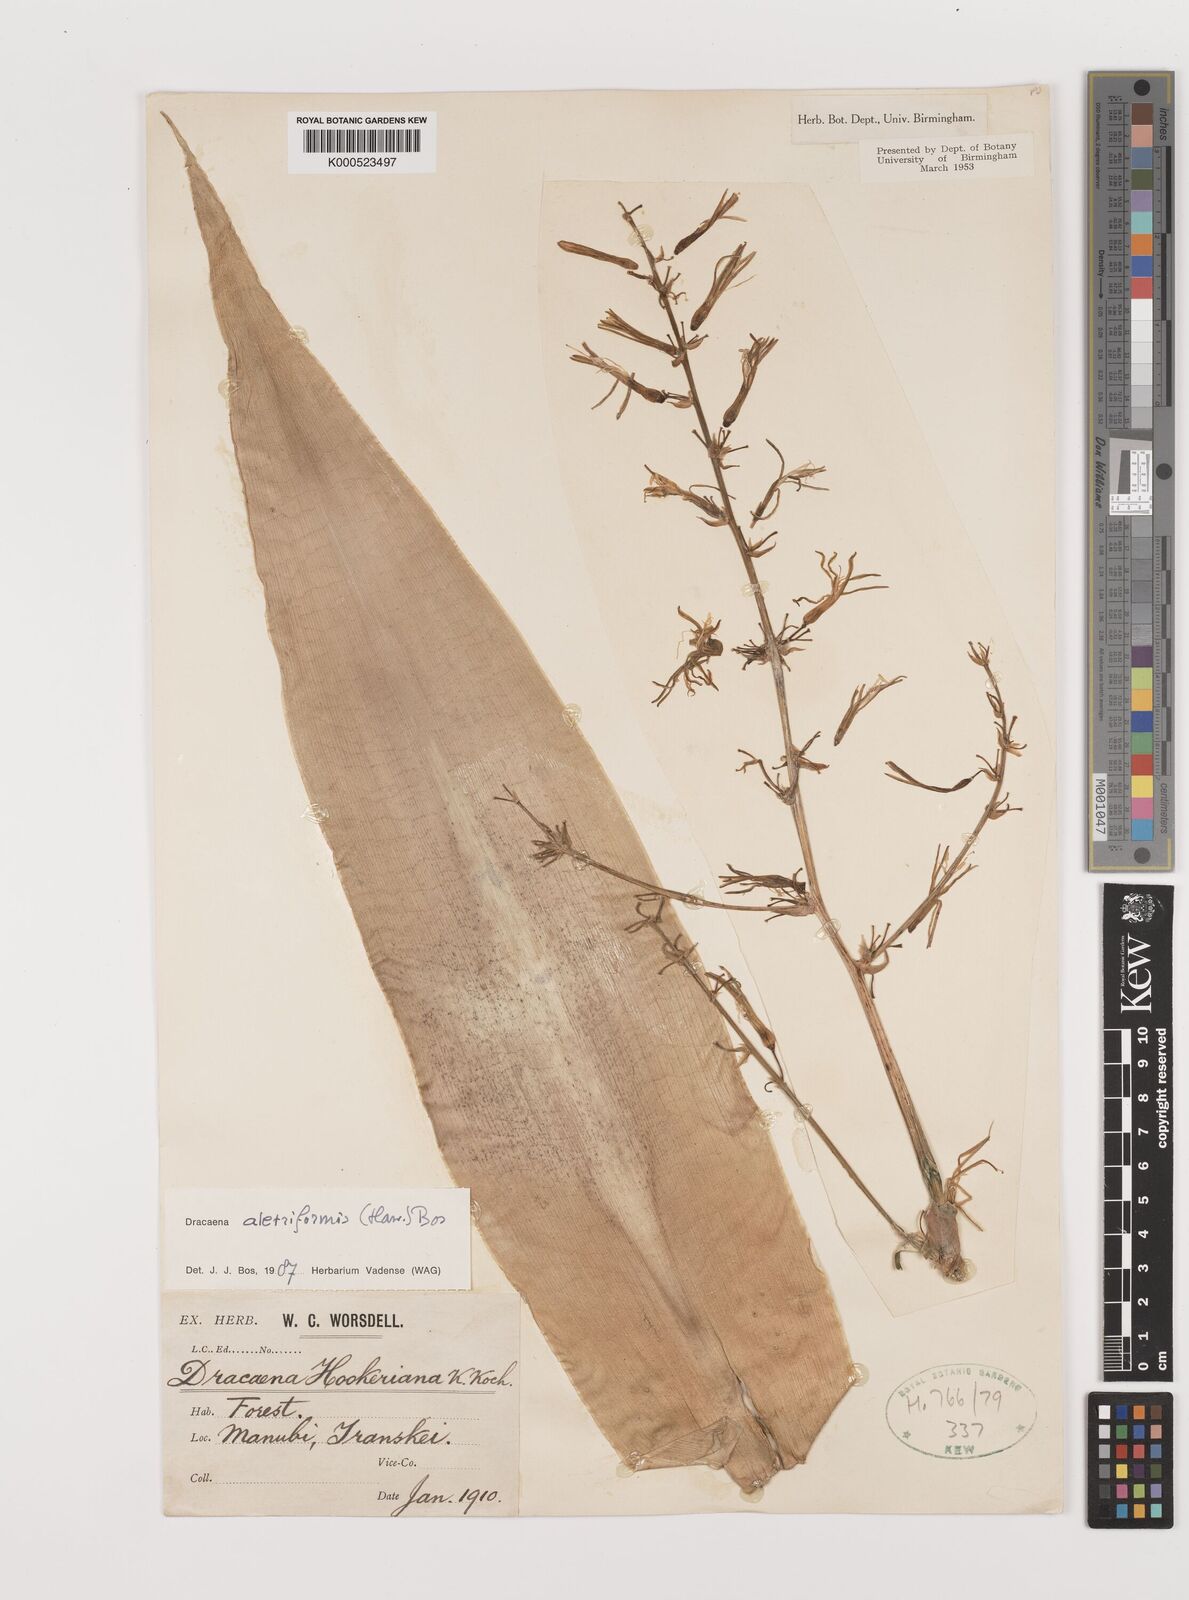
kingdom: Plantae
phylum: Tracheophyta
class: Liliopsida
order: Asparagales
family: Asparagaceae
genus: Dracaena
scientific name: Dracaena aletriformis
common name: Large-leaved dragon tree
